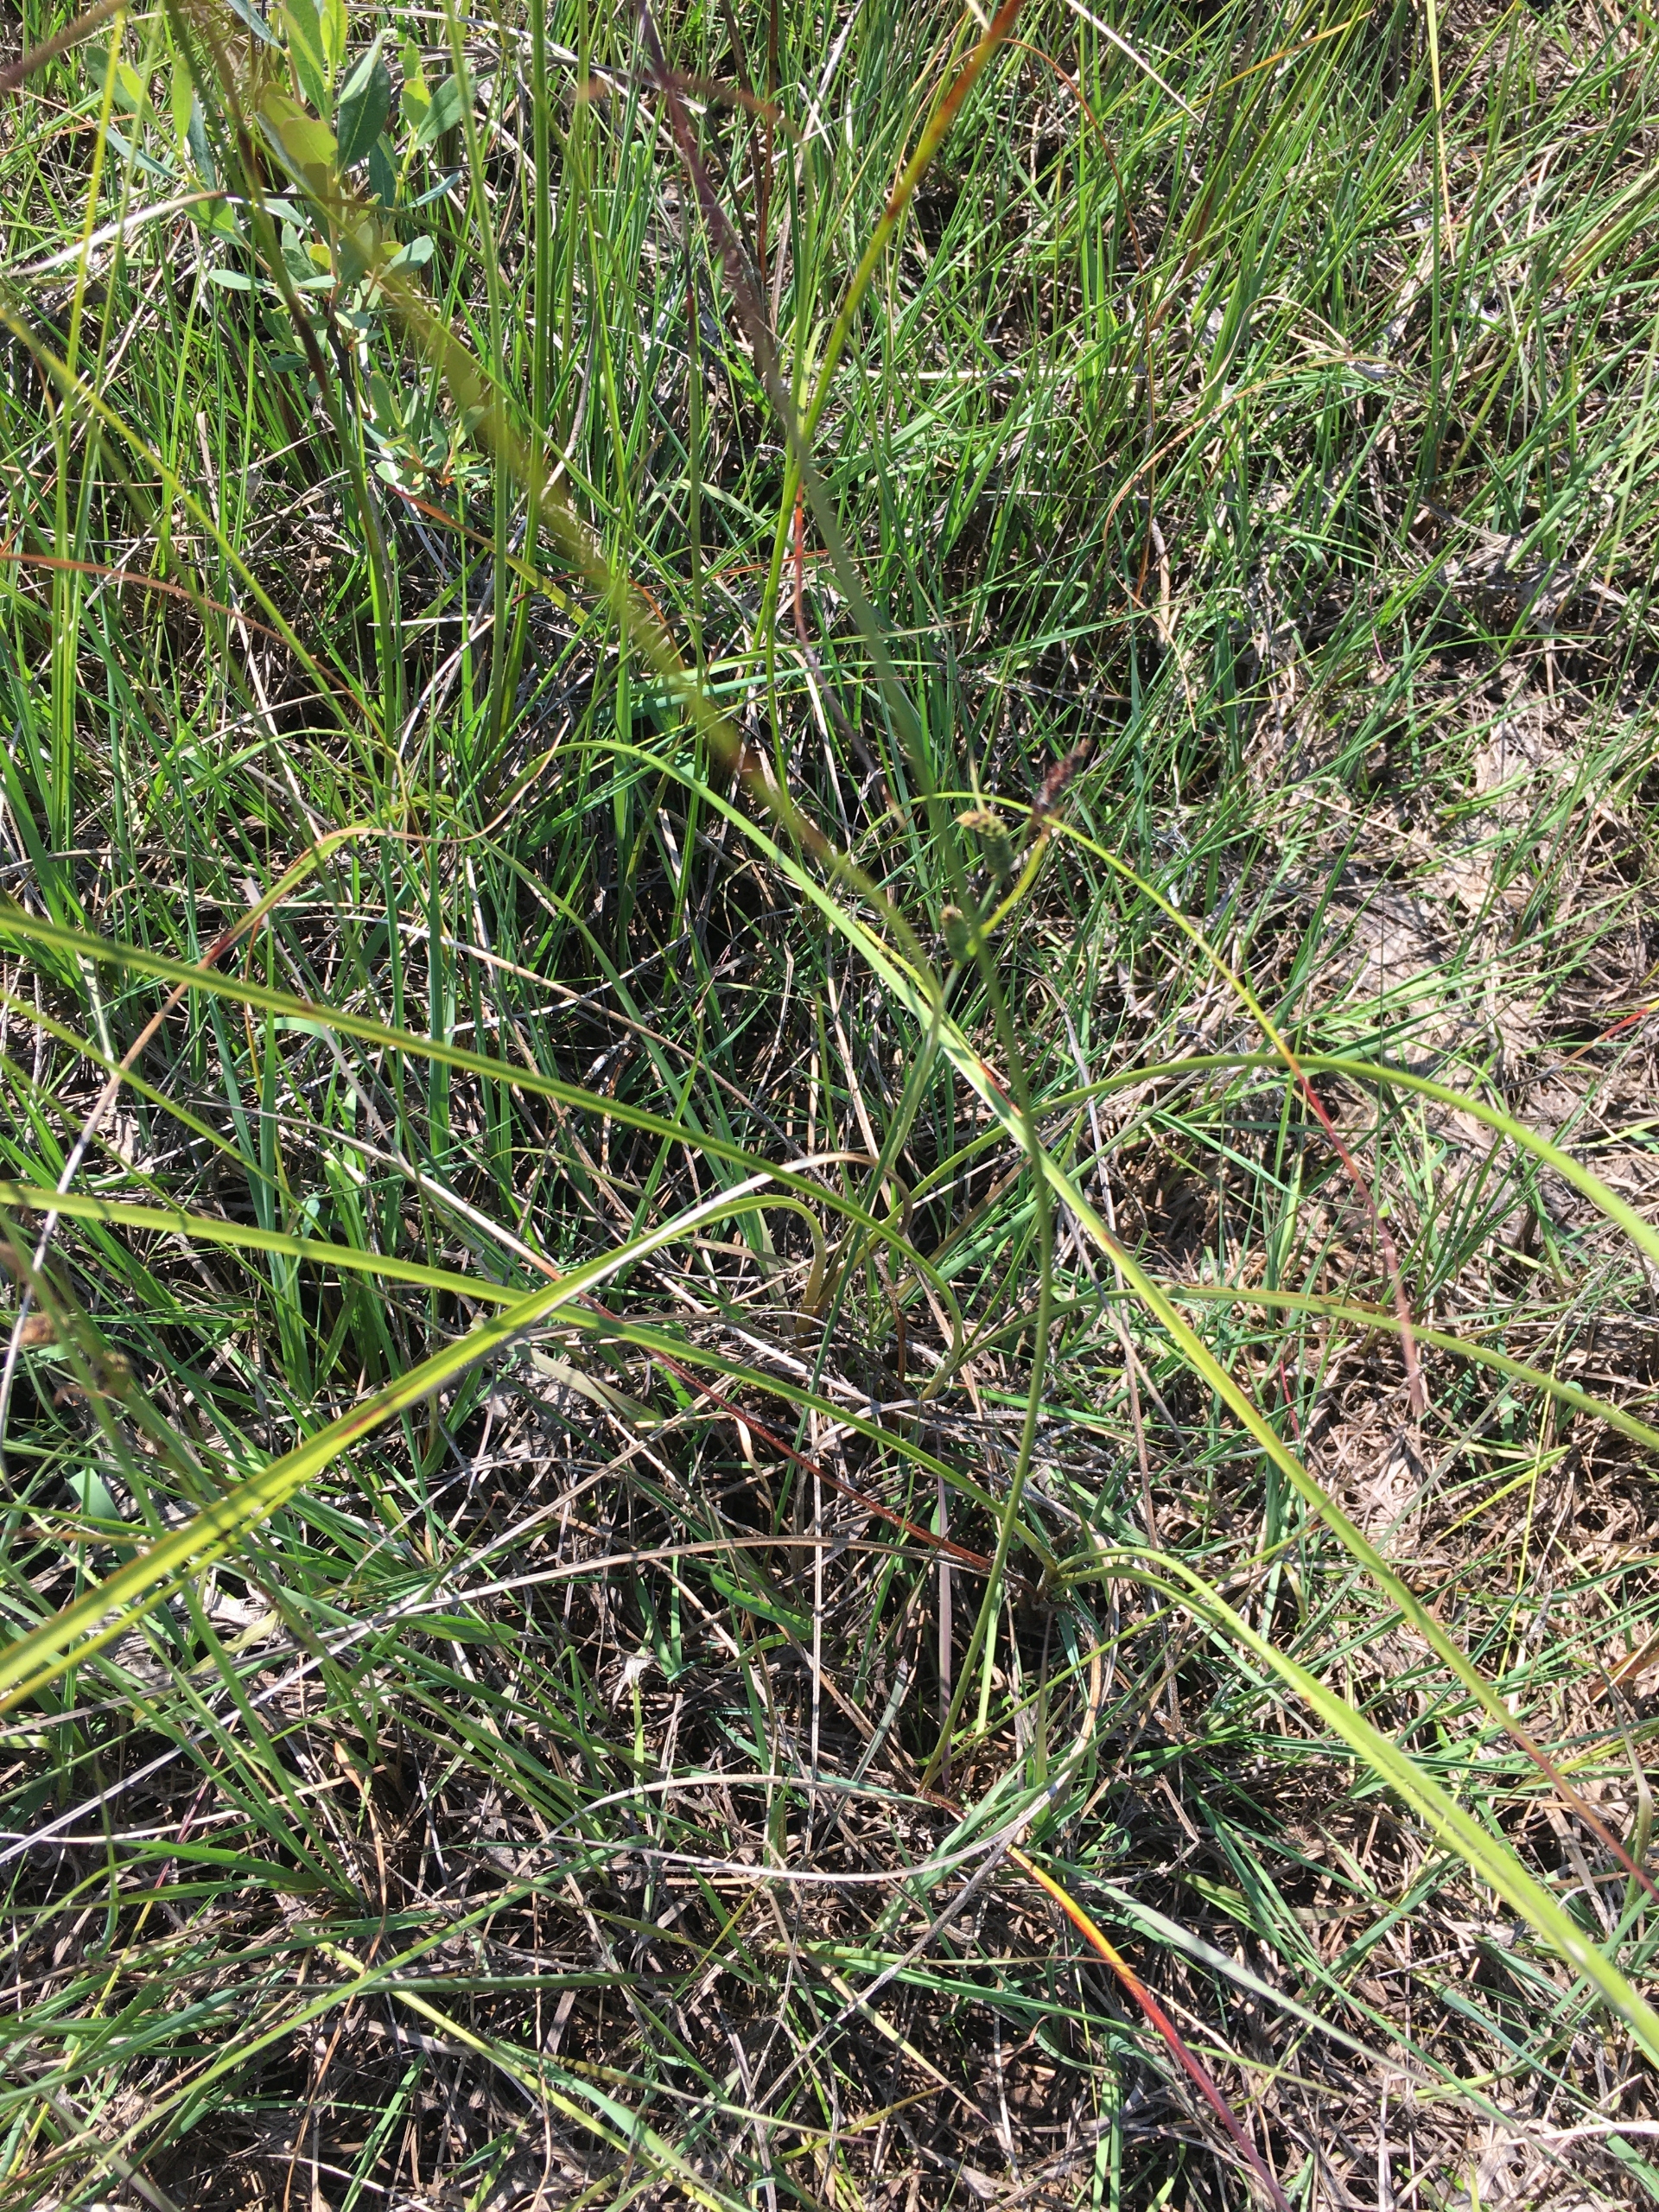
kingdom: Plantae
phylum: Tracheophyta
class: Liliopsida
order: Poales
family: Cyperaceae
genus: Eriophorum
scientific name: Eriophorum angustifolium
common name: Smalbladet kæruld
